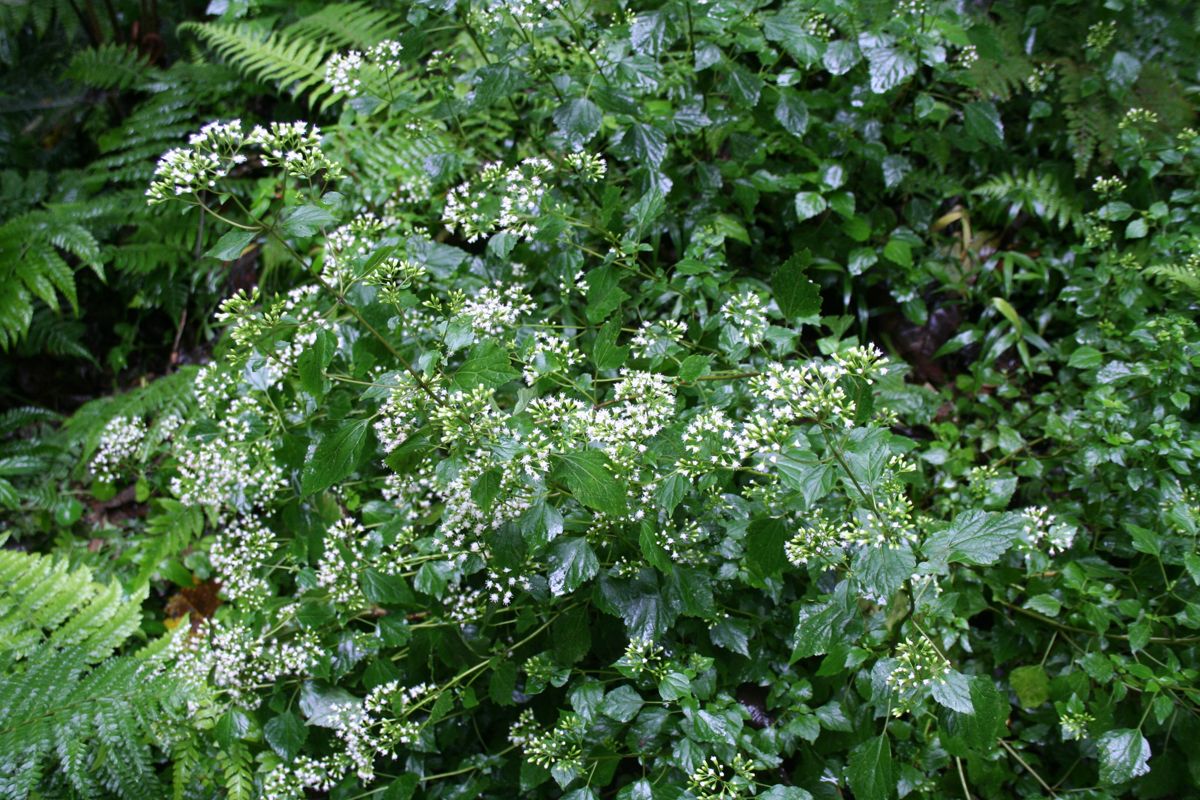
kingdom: Plantae
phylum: Tracheophyta
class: Magnoliopsida
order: Asterales
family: Asteraceae
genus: Ageratina
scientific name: Ageratina
